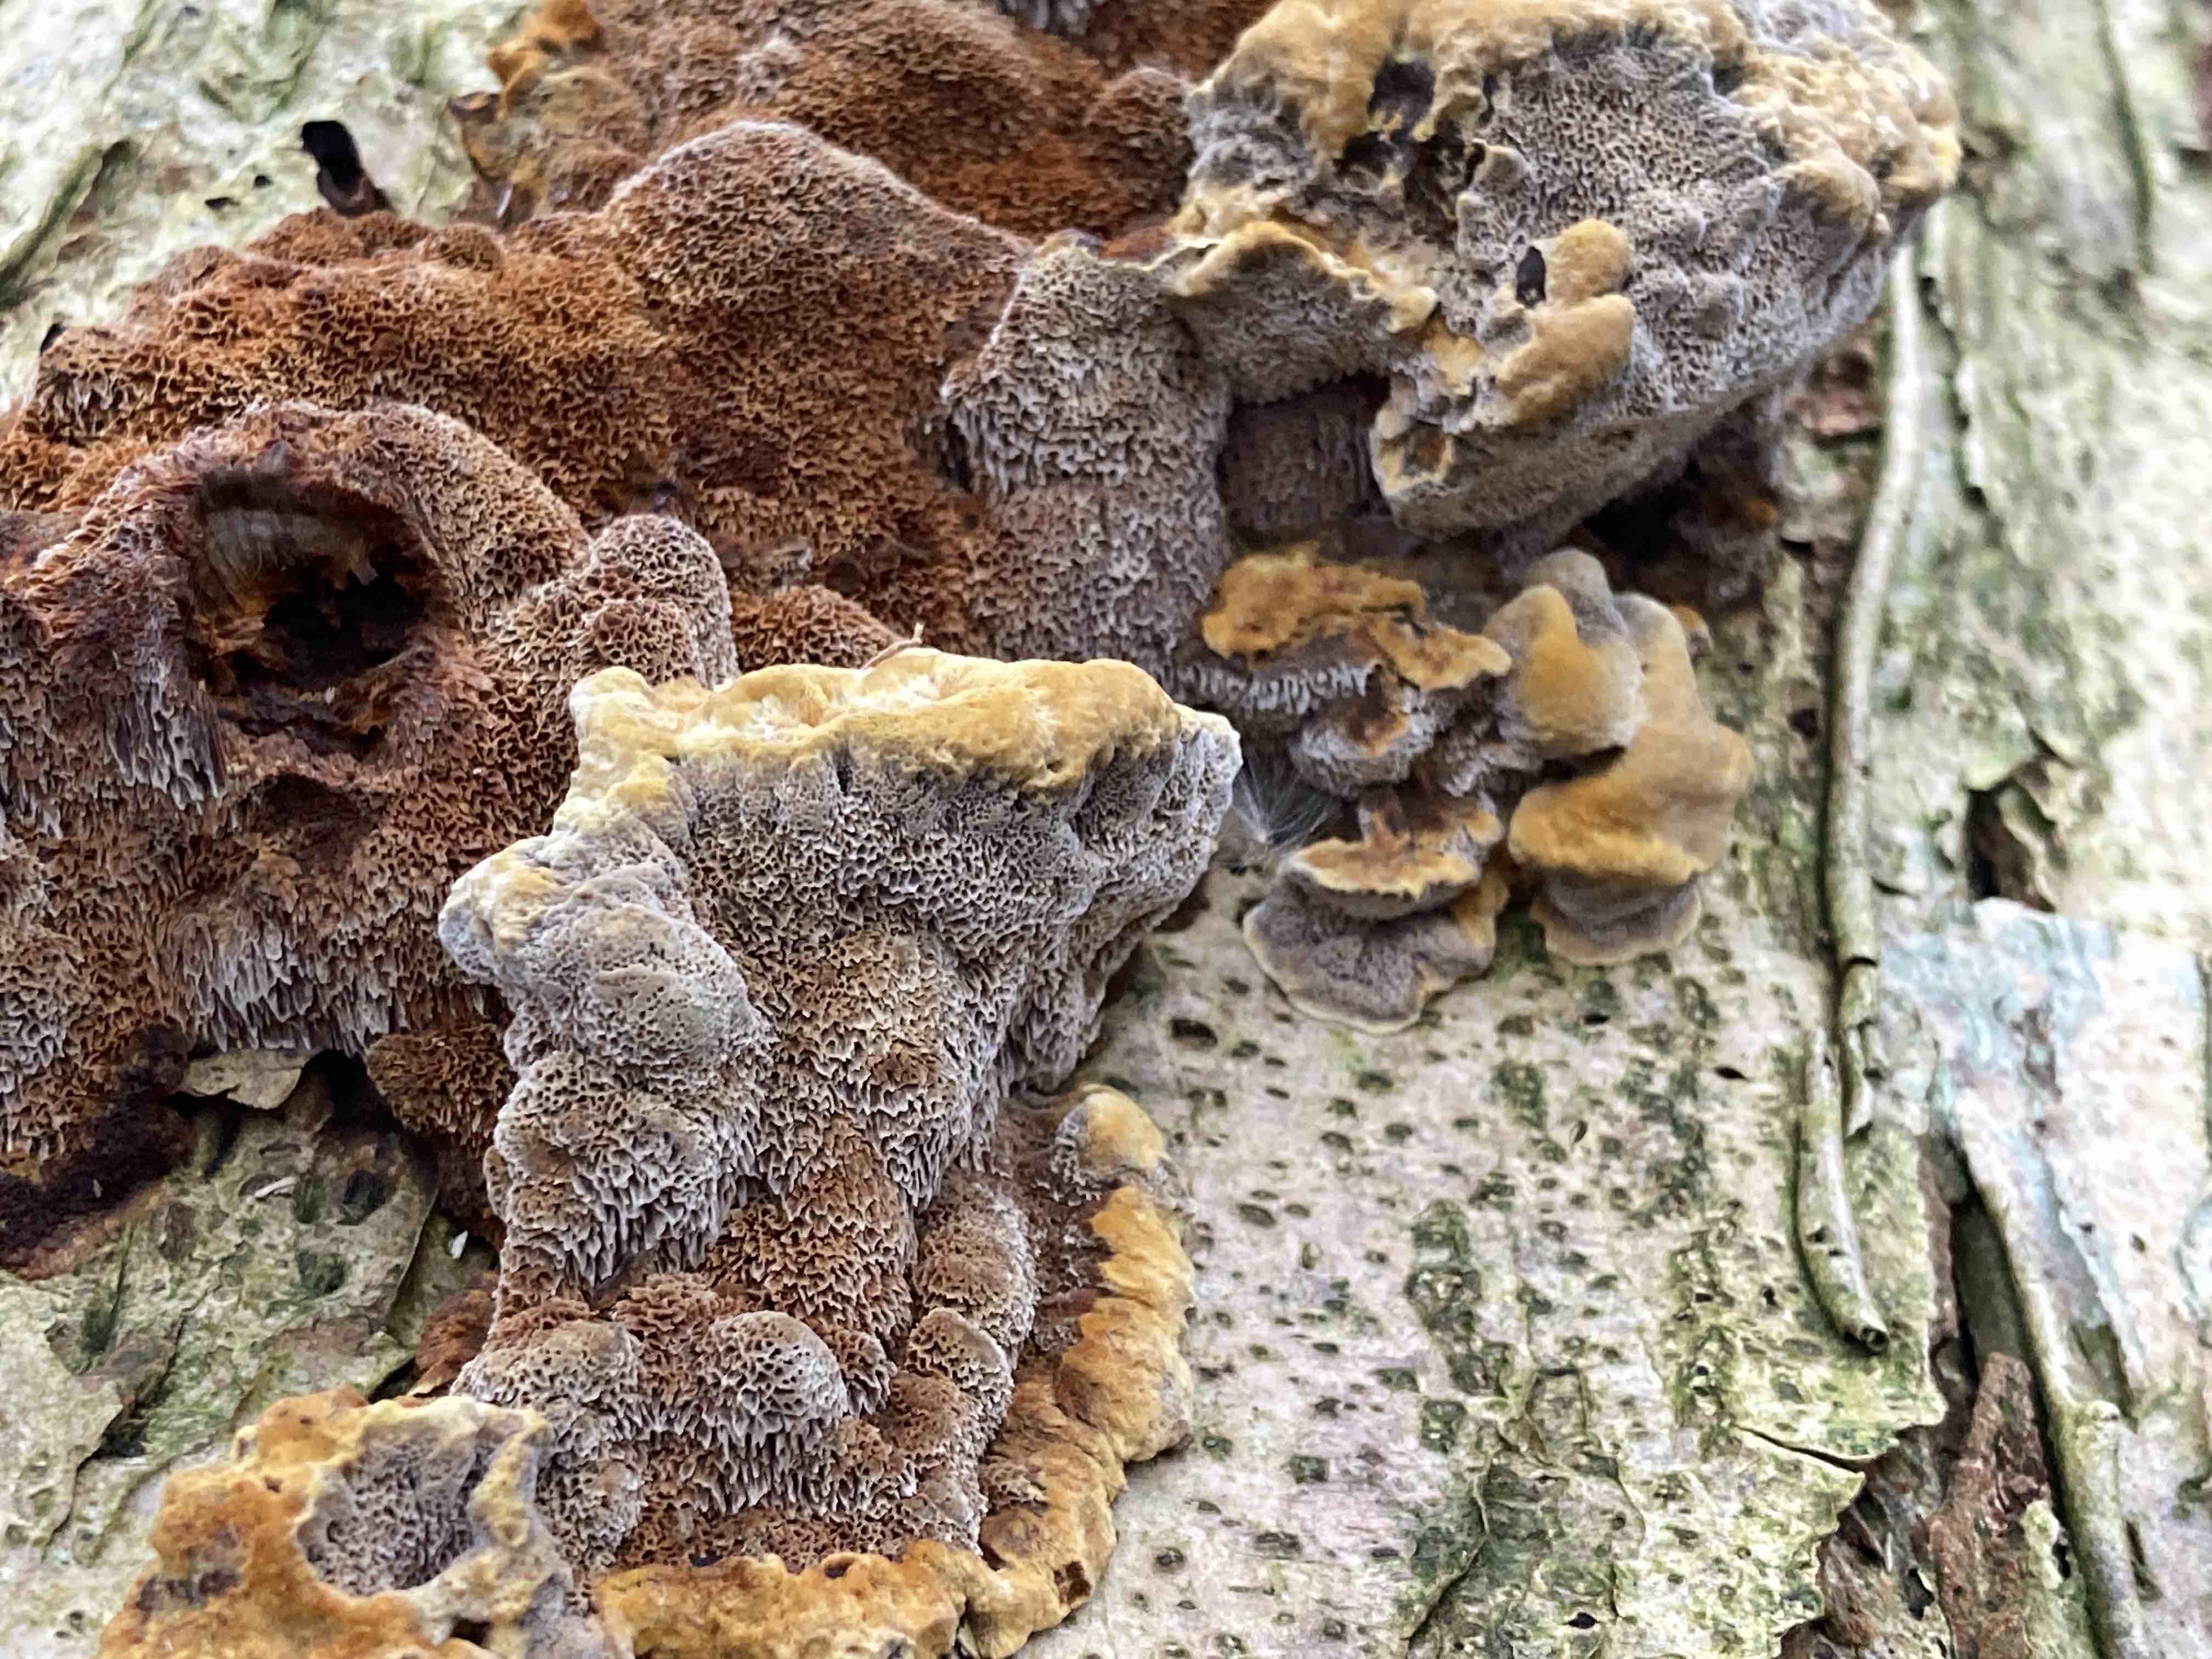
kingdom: Fungi
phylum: Basidiomycota
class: Agaricomycetes
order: Hymenochaetales
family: Hymenochaetaceae
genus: Xanthoporia
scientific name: Xanthoporia radiata
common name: elle-spejlporesvamp
